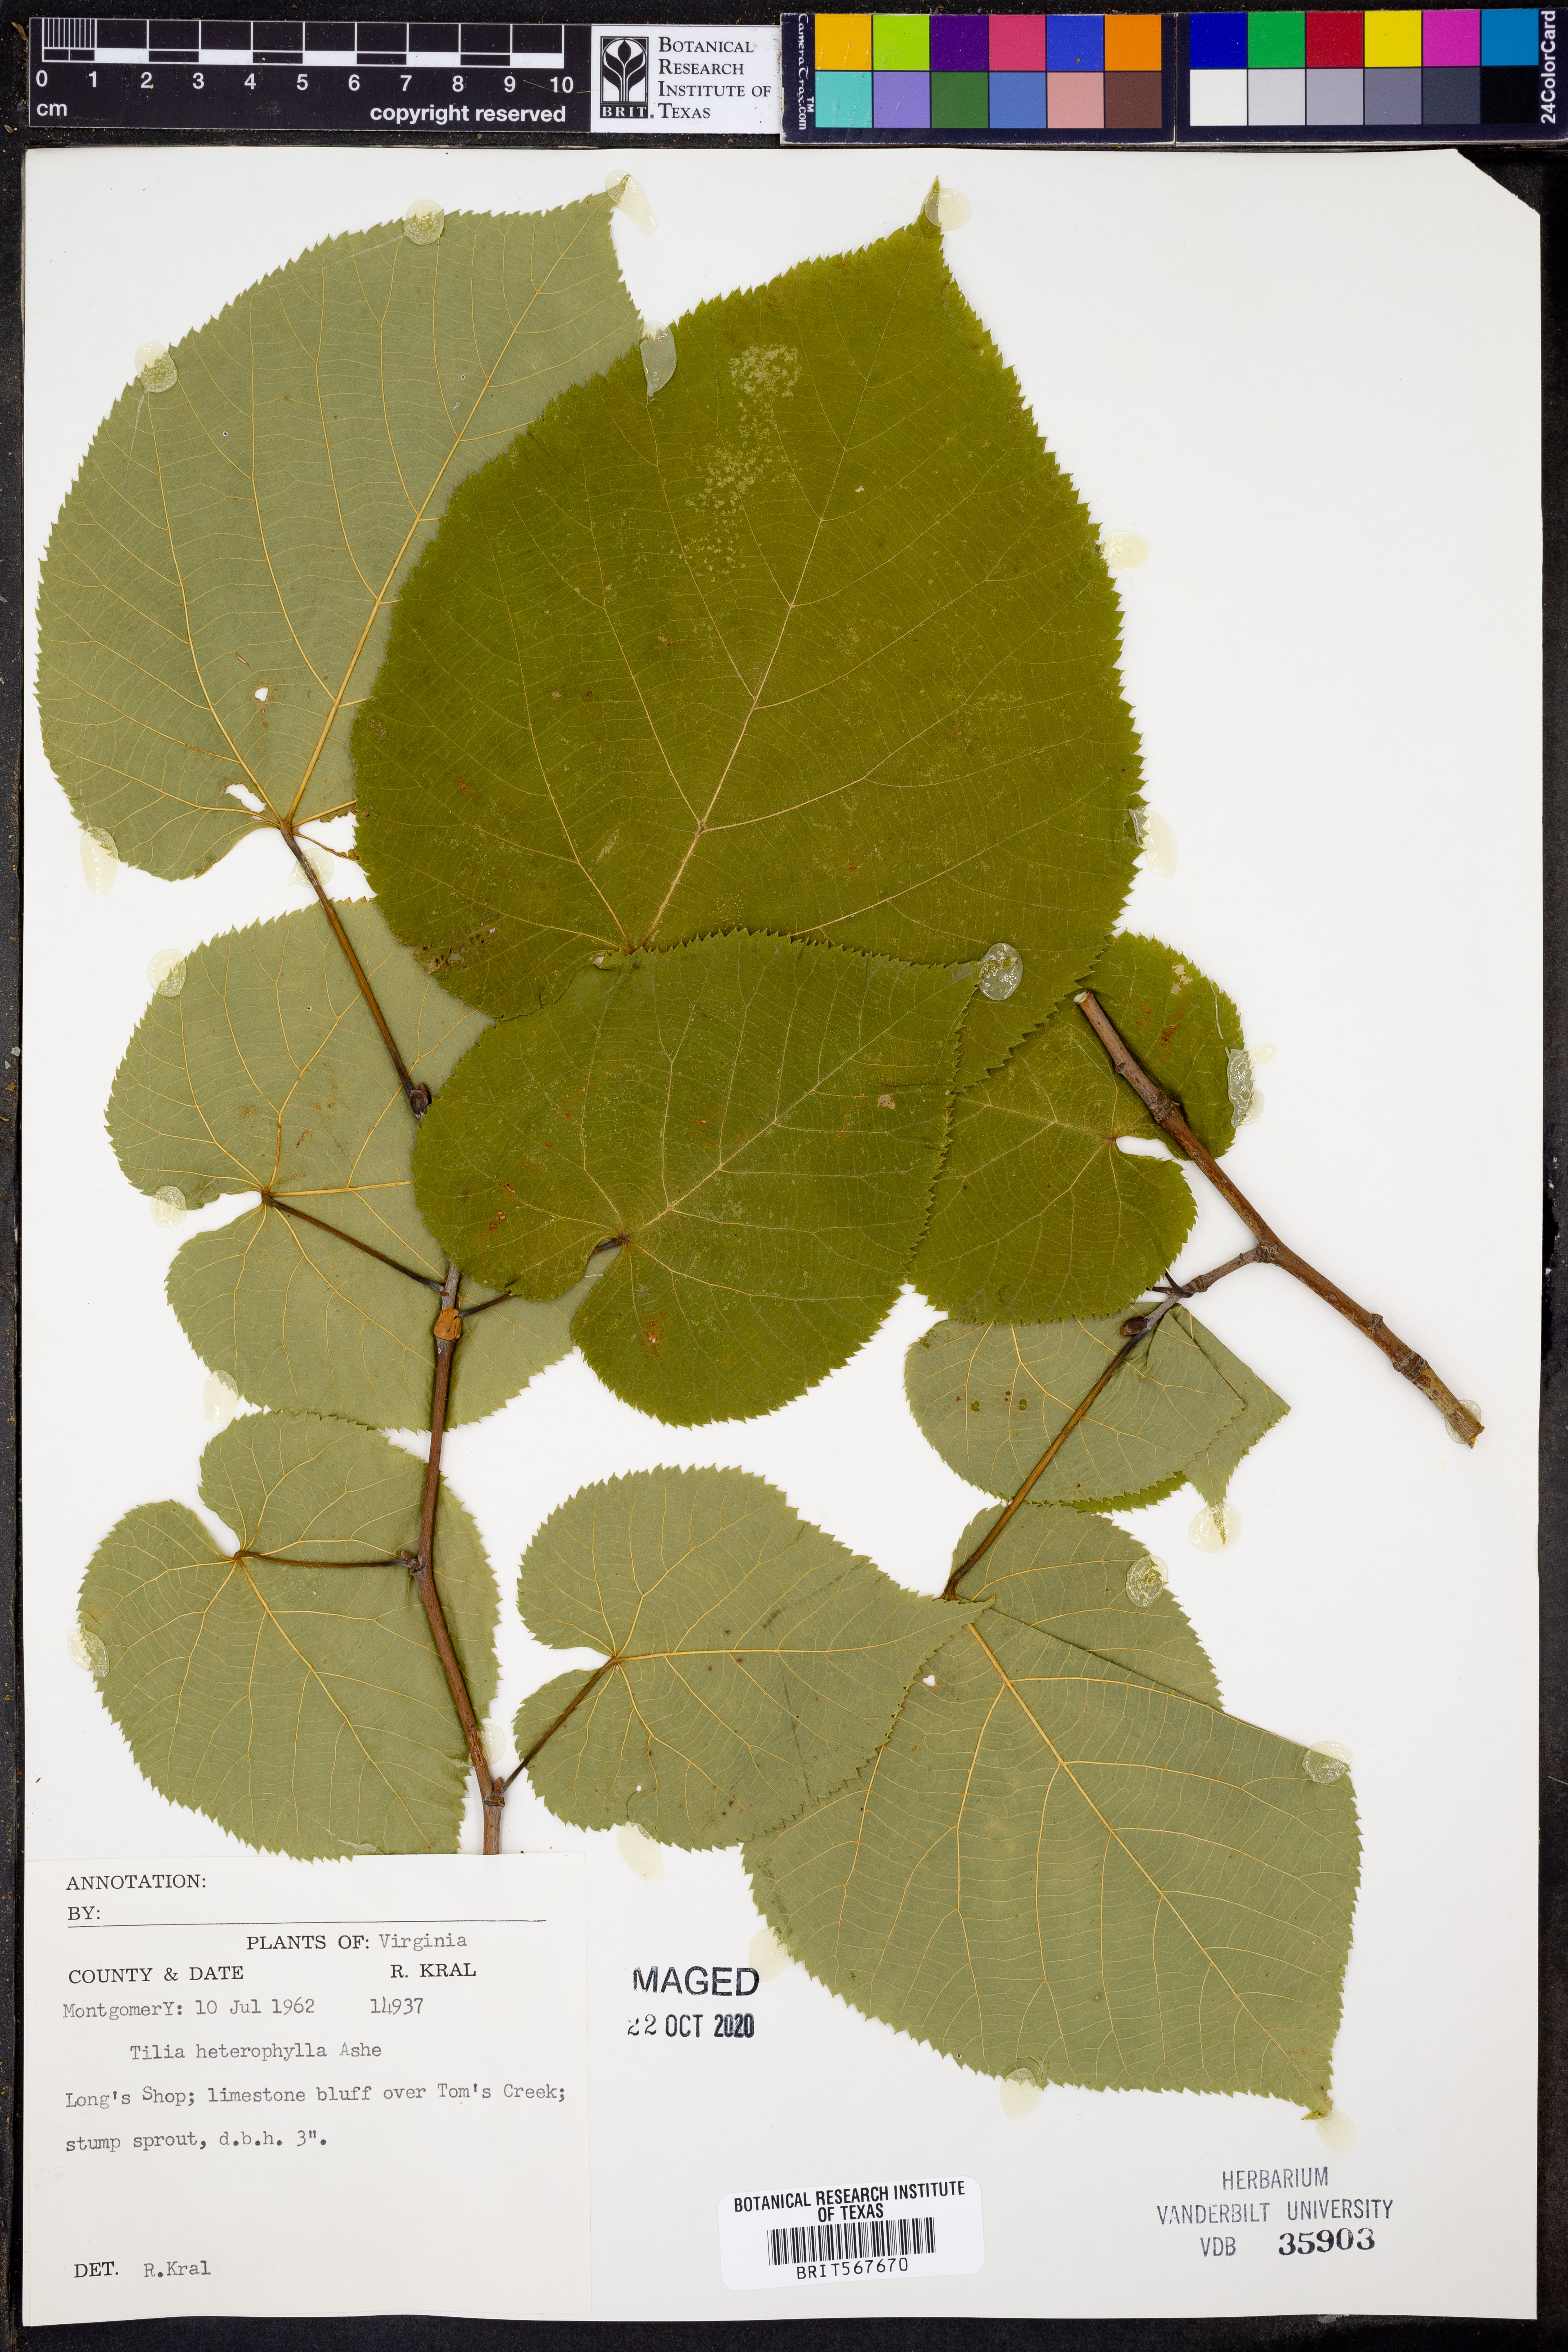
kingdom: Plantae
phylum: Tracheophyta
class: Magnoliopsida
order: Malvales
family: Malvaceae
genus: Tilia
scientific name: Tilia americana
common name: Basswood
